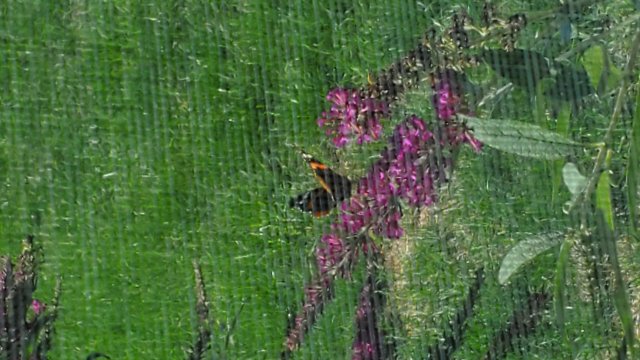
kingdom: Animalia
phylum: Arthropoda
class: Insecta
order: Lepidoptera
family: Nymphalidae
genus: Vanessa
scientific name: Vanessa atalanta
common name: Red Admiral
